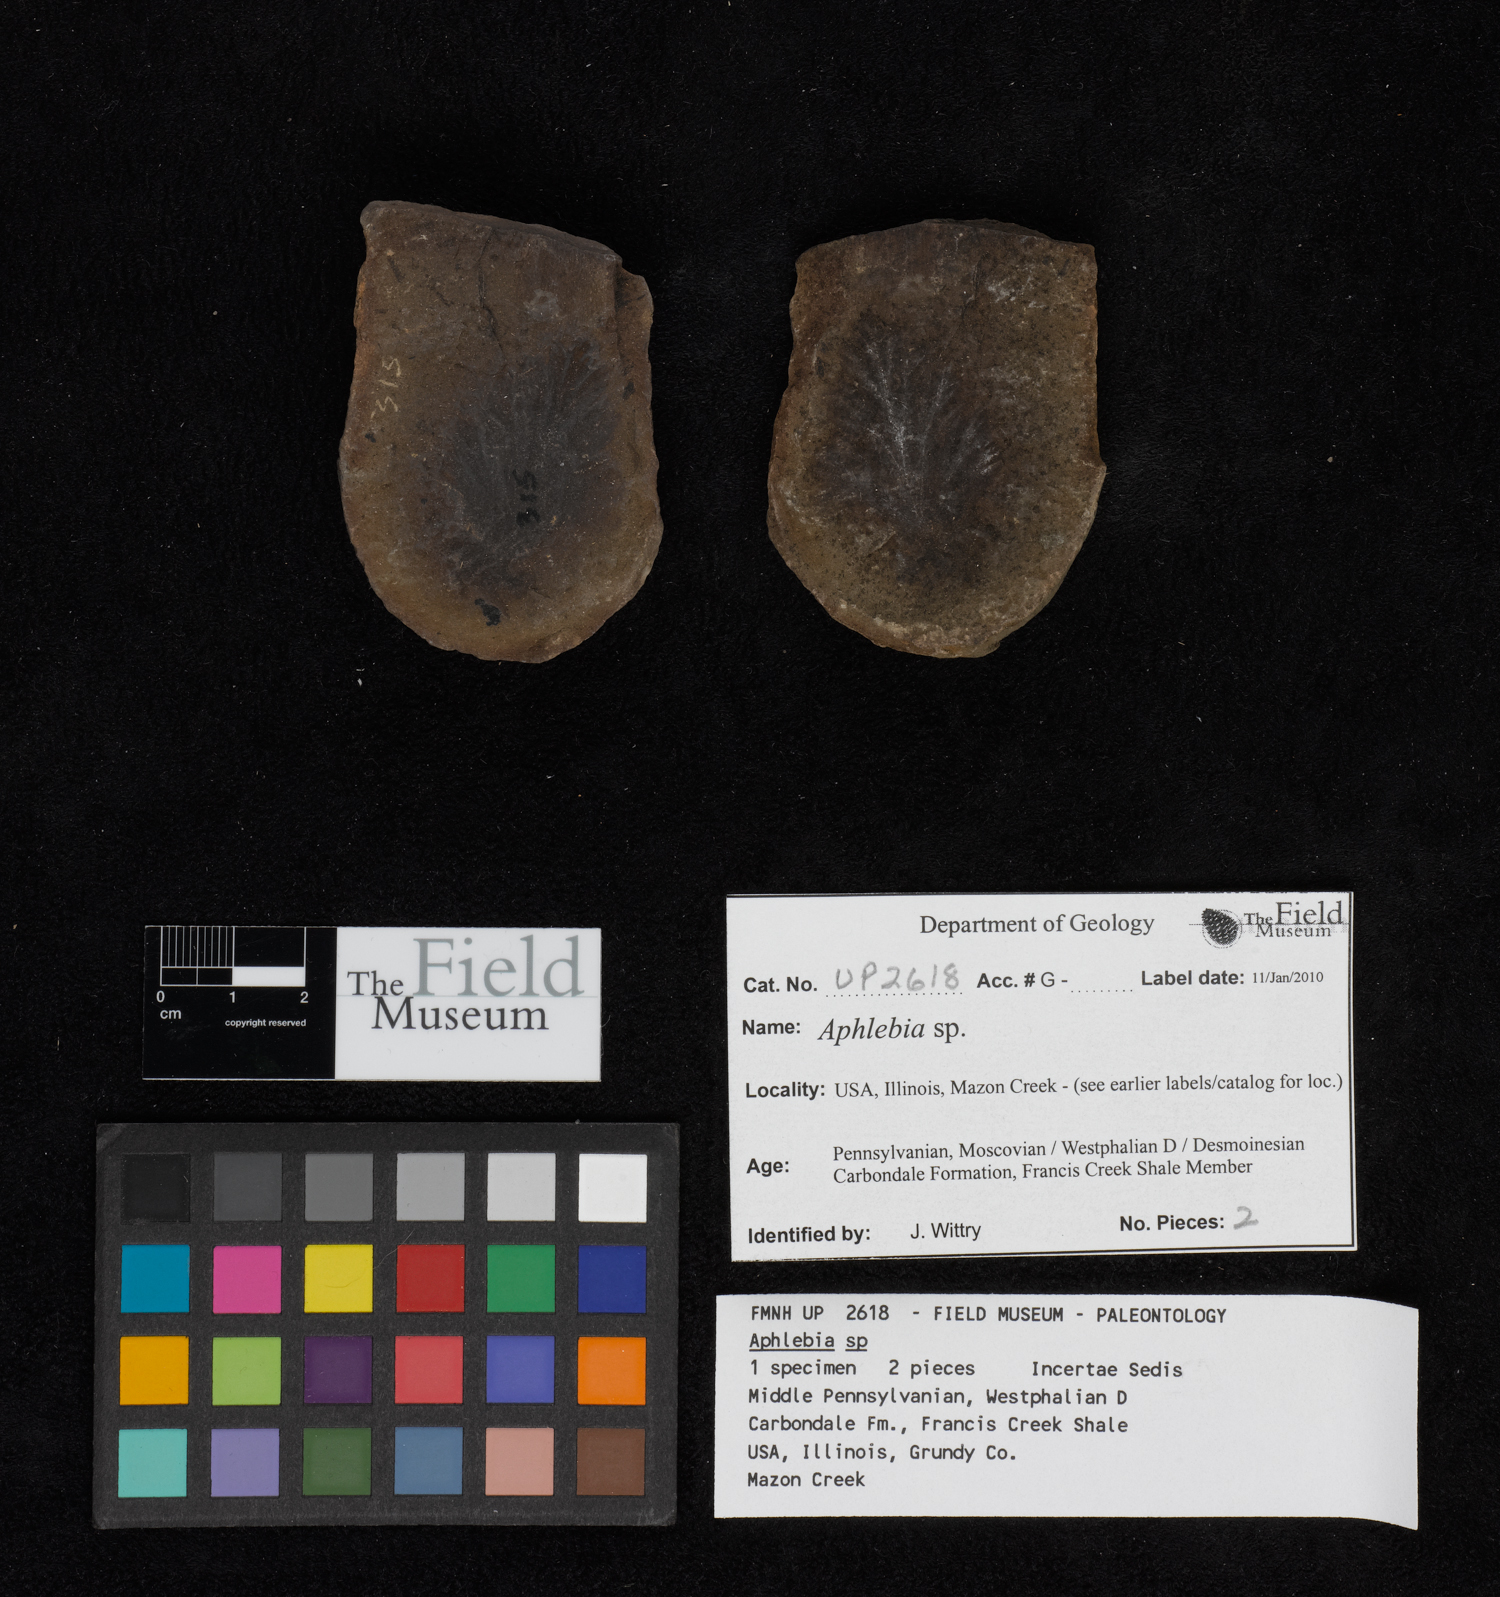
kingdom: Plantae
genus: Rhacophyllum
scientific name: Rhacophyllum
